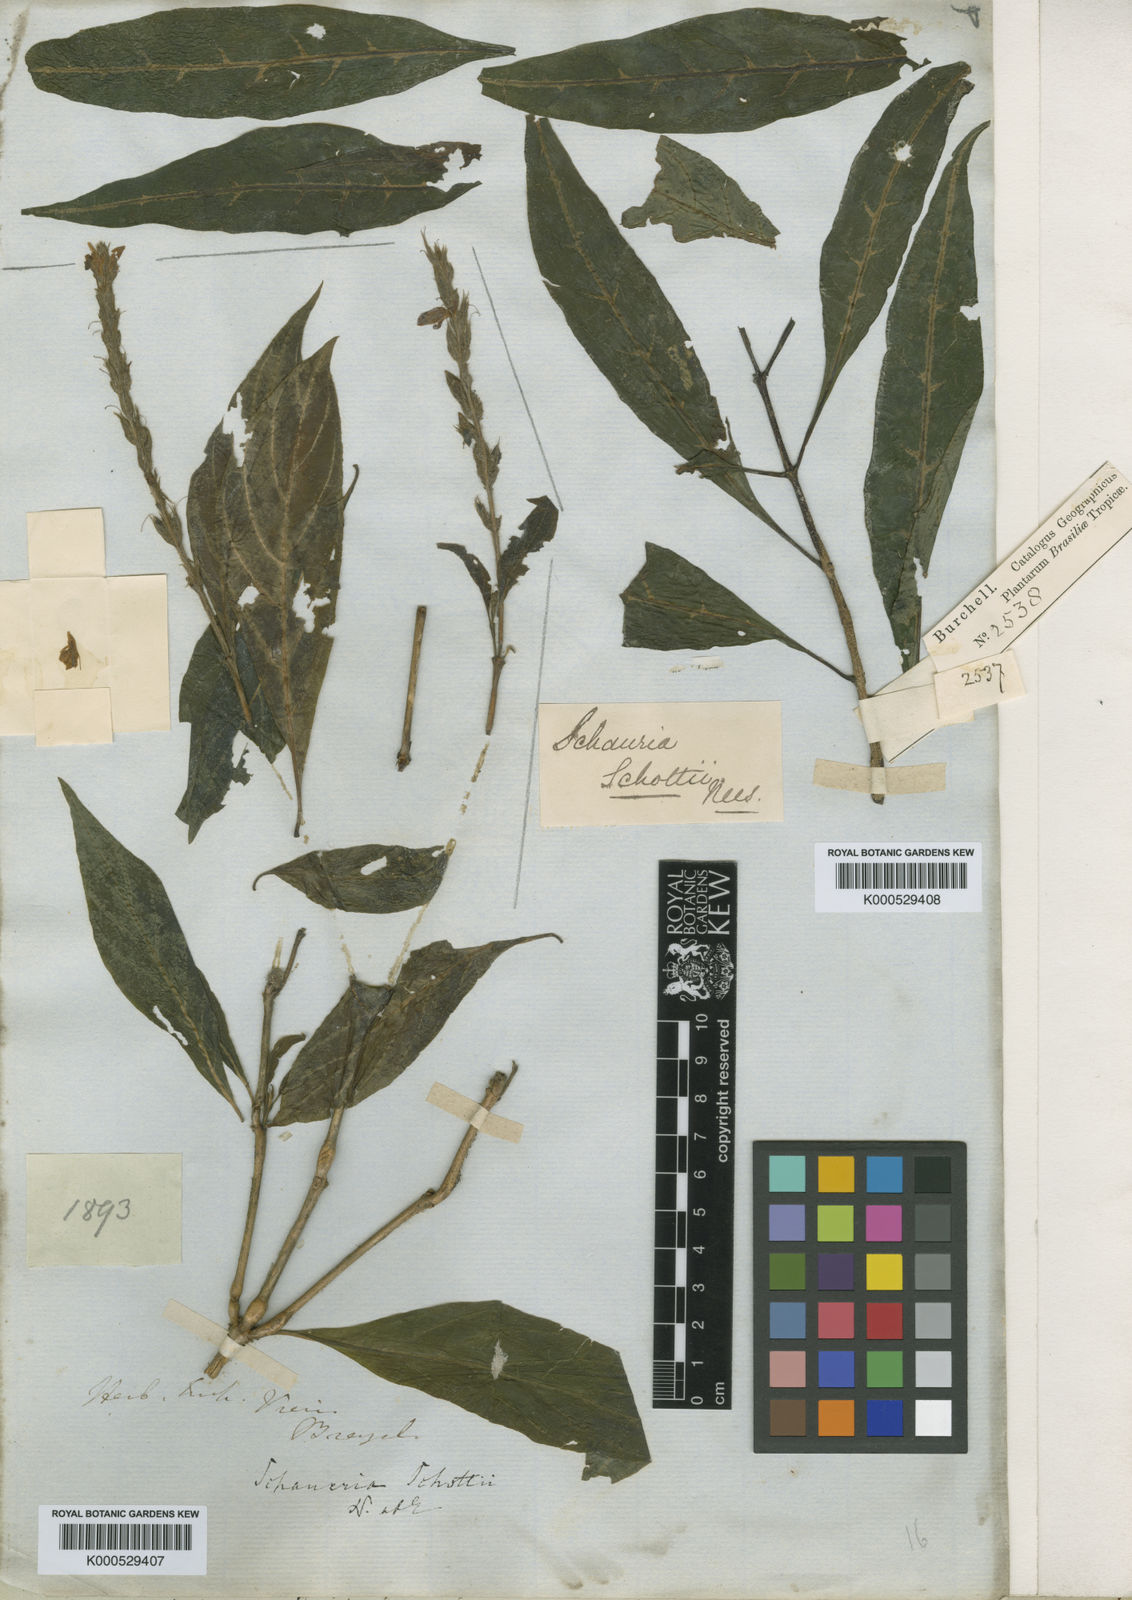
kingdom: Plantae
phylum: Tracheophyta
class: Magnoliopsida
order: Lamiales
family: Acanthaceae
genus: Schaueria
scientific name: Schaueria spicata
